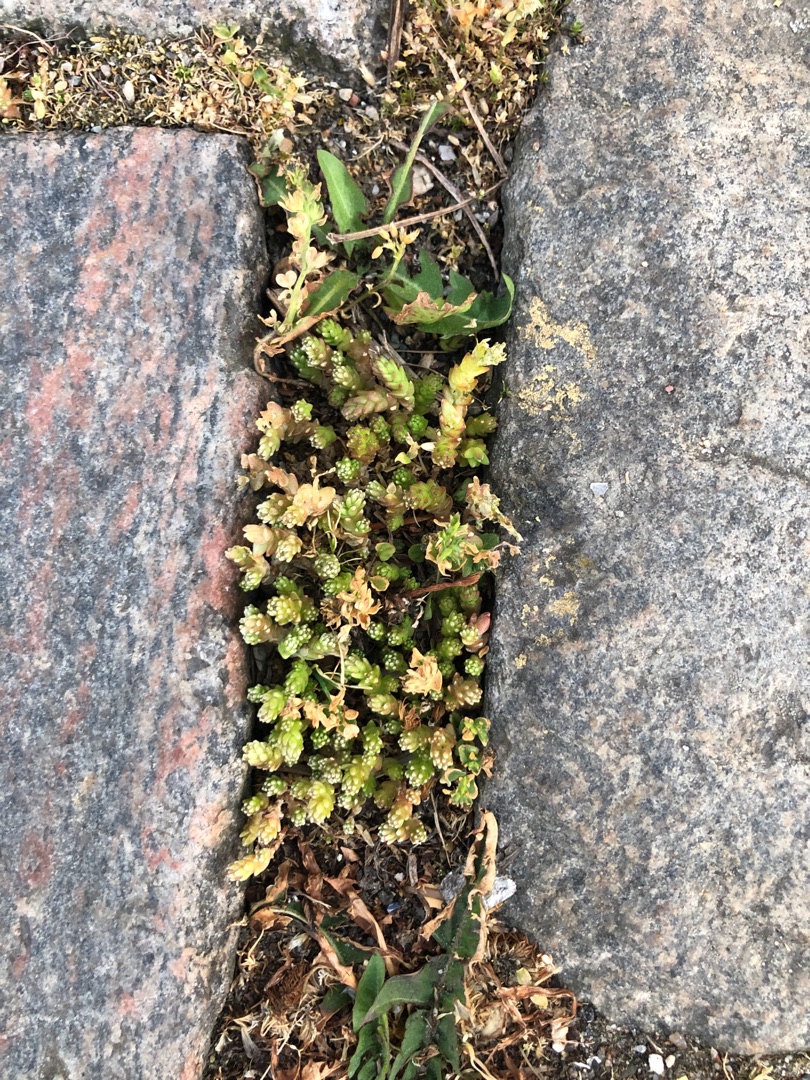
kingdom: Plantae
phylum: Tracheophyta
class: Magnoliopsida
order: Saxifragales
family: Crassulaceae
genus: Sedum
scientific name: Sedum acre
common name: Bidende stenurt
